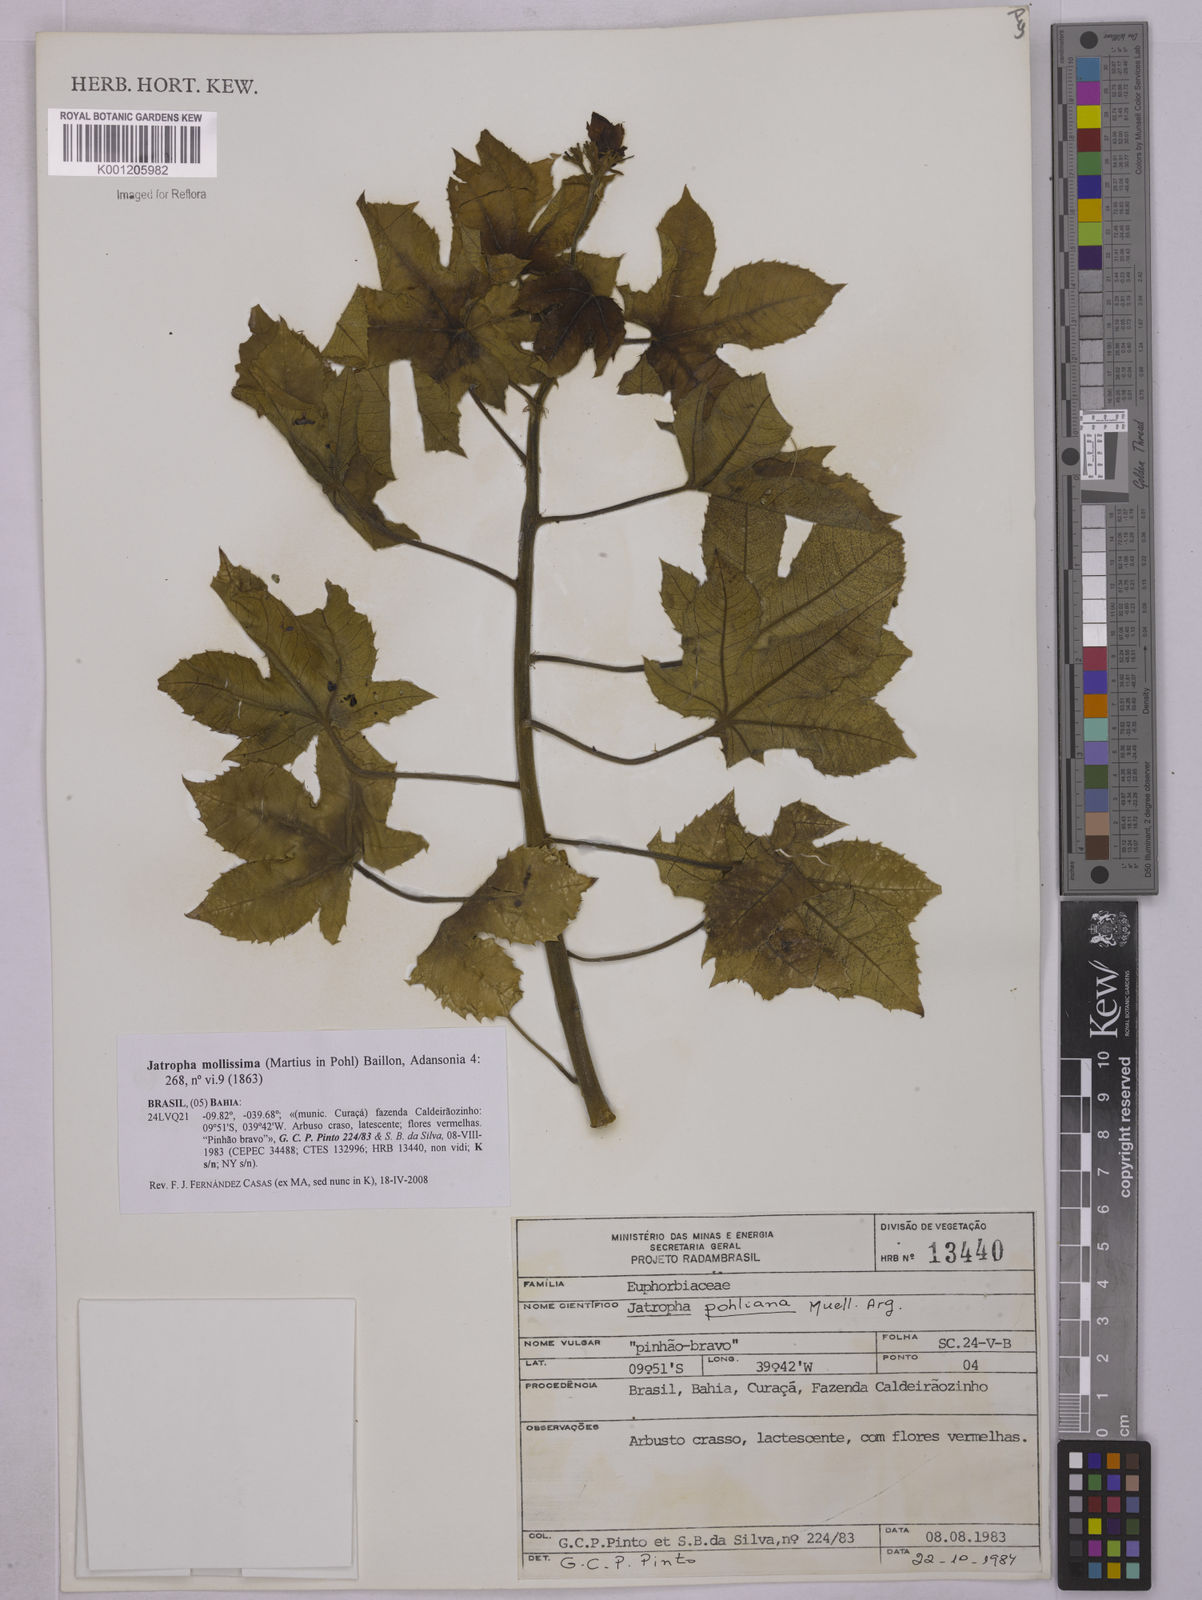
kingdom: Plantae
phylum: Tracheophyta
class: Magnoliopsida
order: Malpighiales
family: Euphorbiaceae
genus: Jatropha
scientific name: Jatropha mollissima
